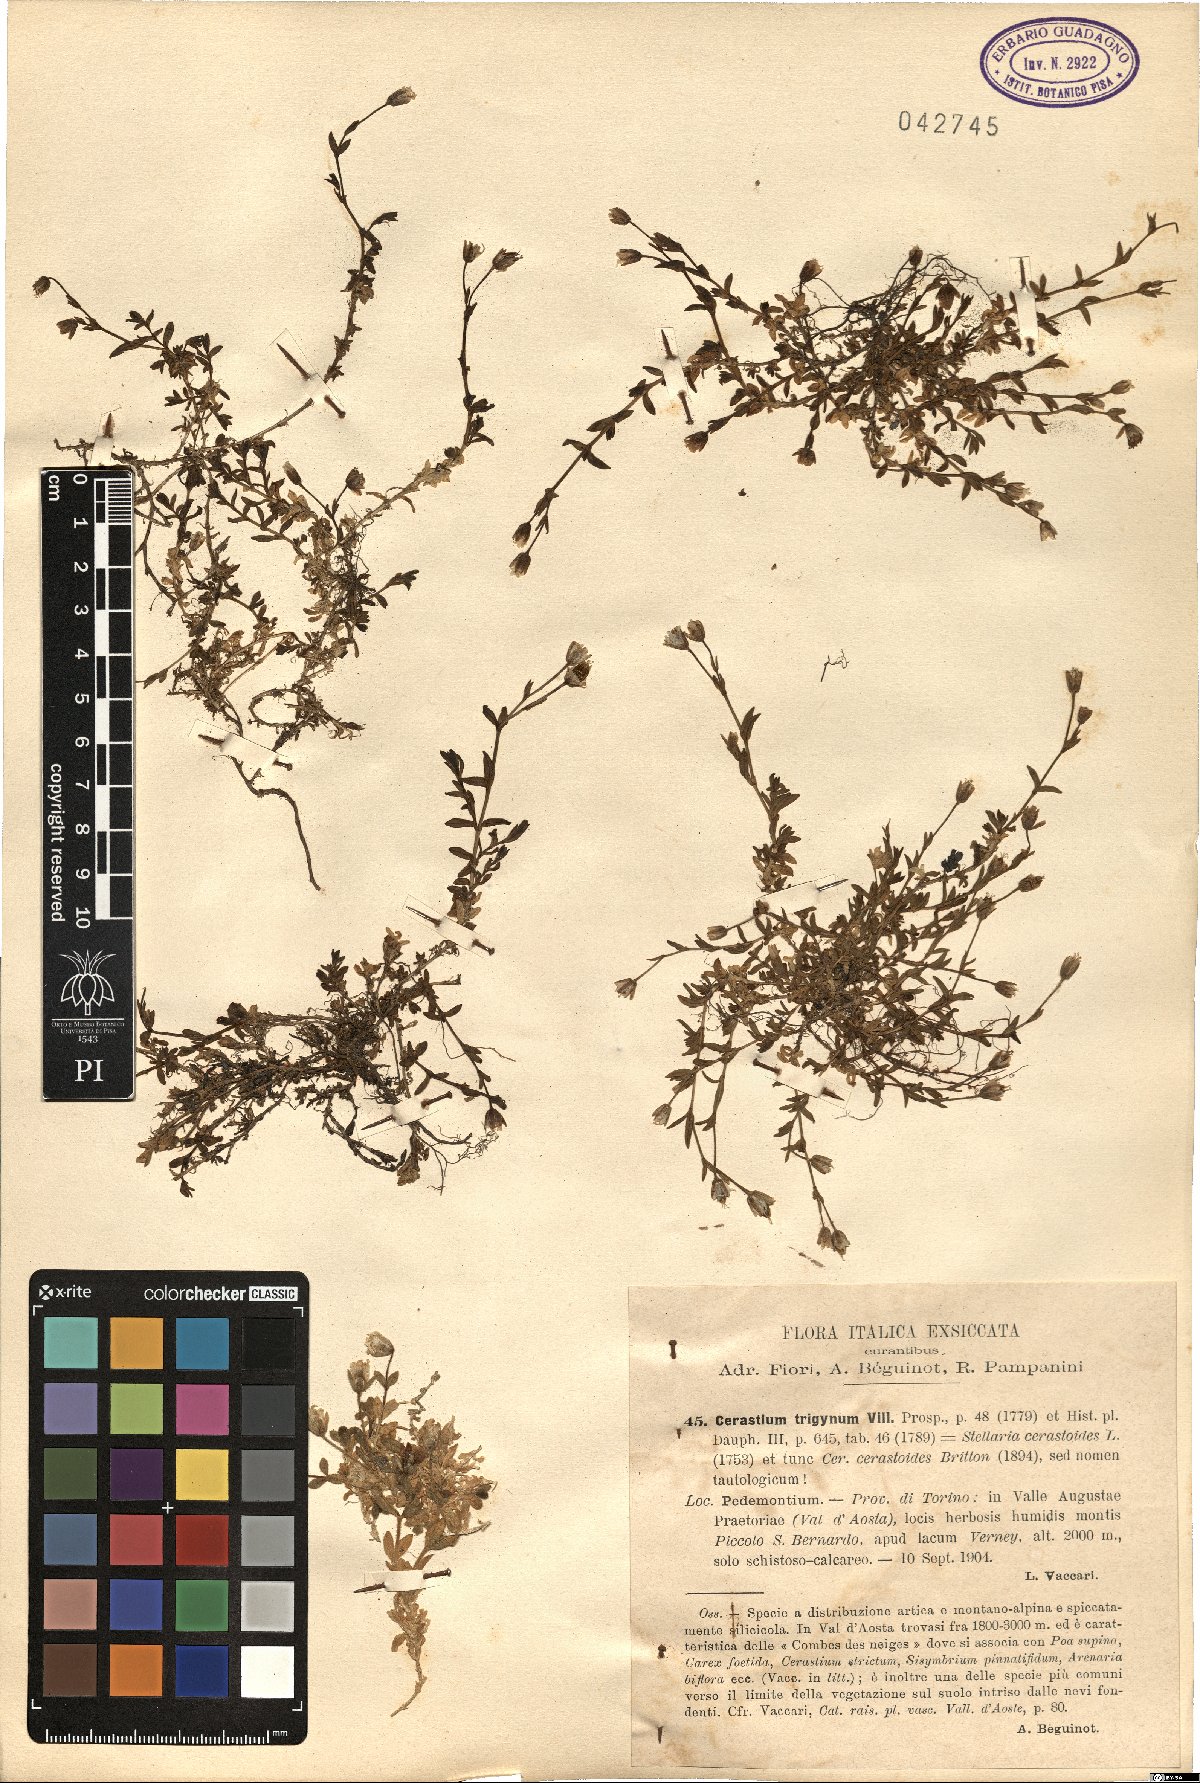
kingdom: Plantae
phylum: Tracheophyta
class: Magnoliopsida
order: Caryophyllales
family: Caryophyllaceae
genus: Dichodon
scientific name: Dichodon cerastoides
